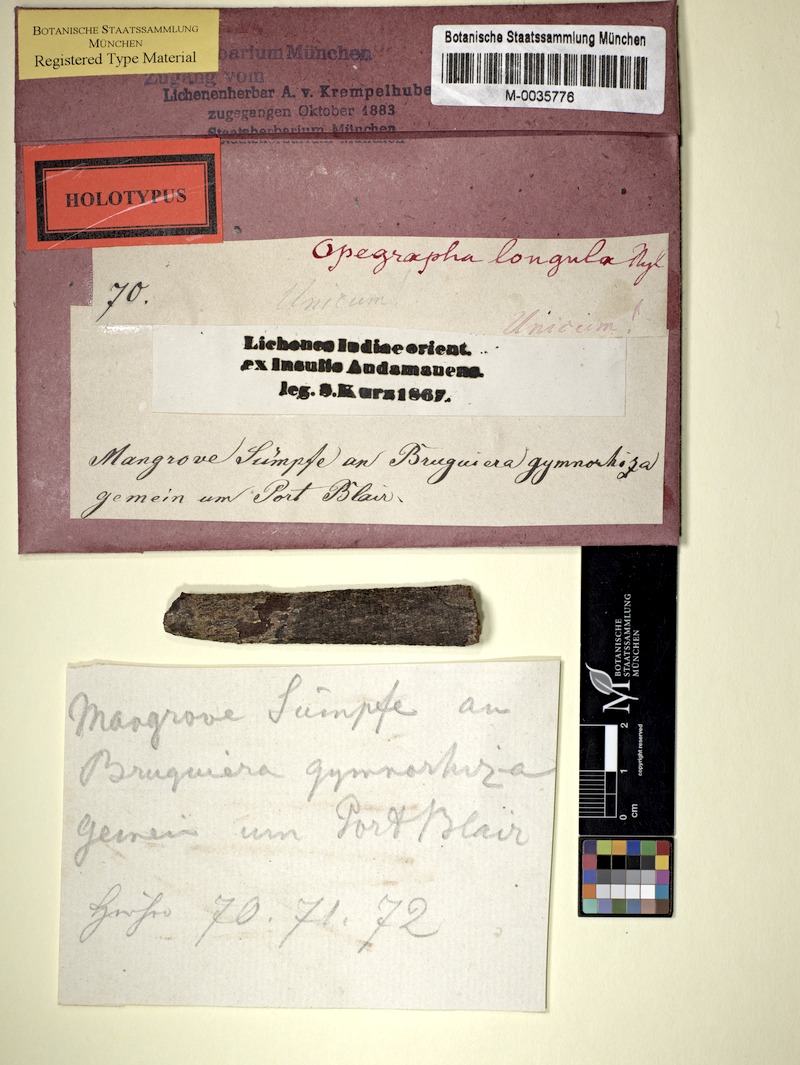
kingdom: Fungi
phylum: Ascomycota
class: Arthoniomycetes
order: Arthoniales
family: Opegraphaceae
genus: Opegrapha
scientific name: Opegrapha
